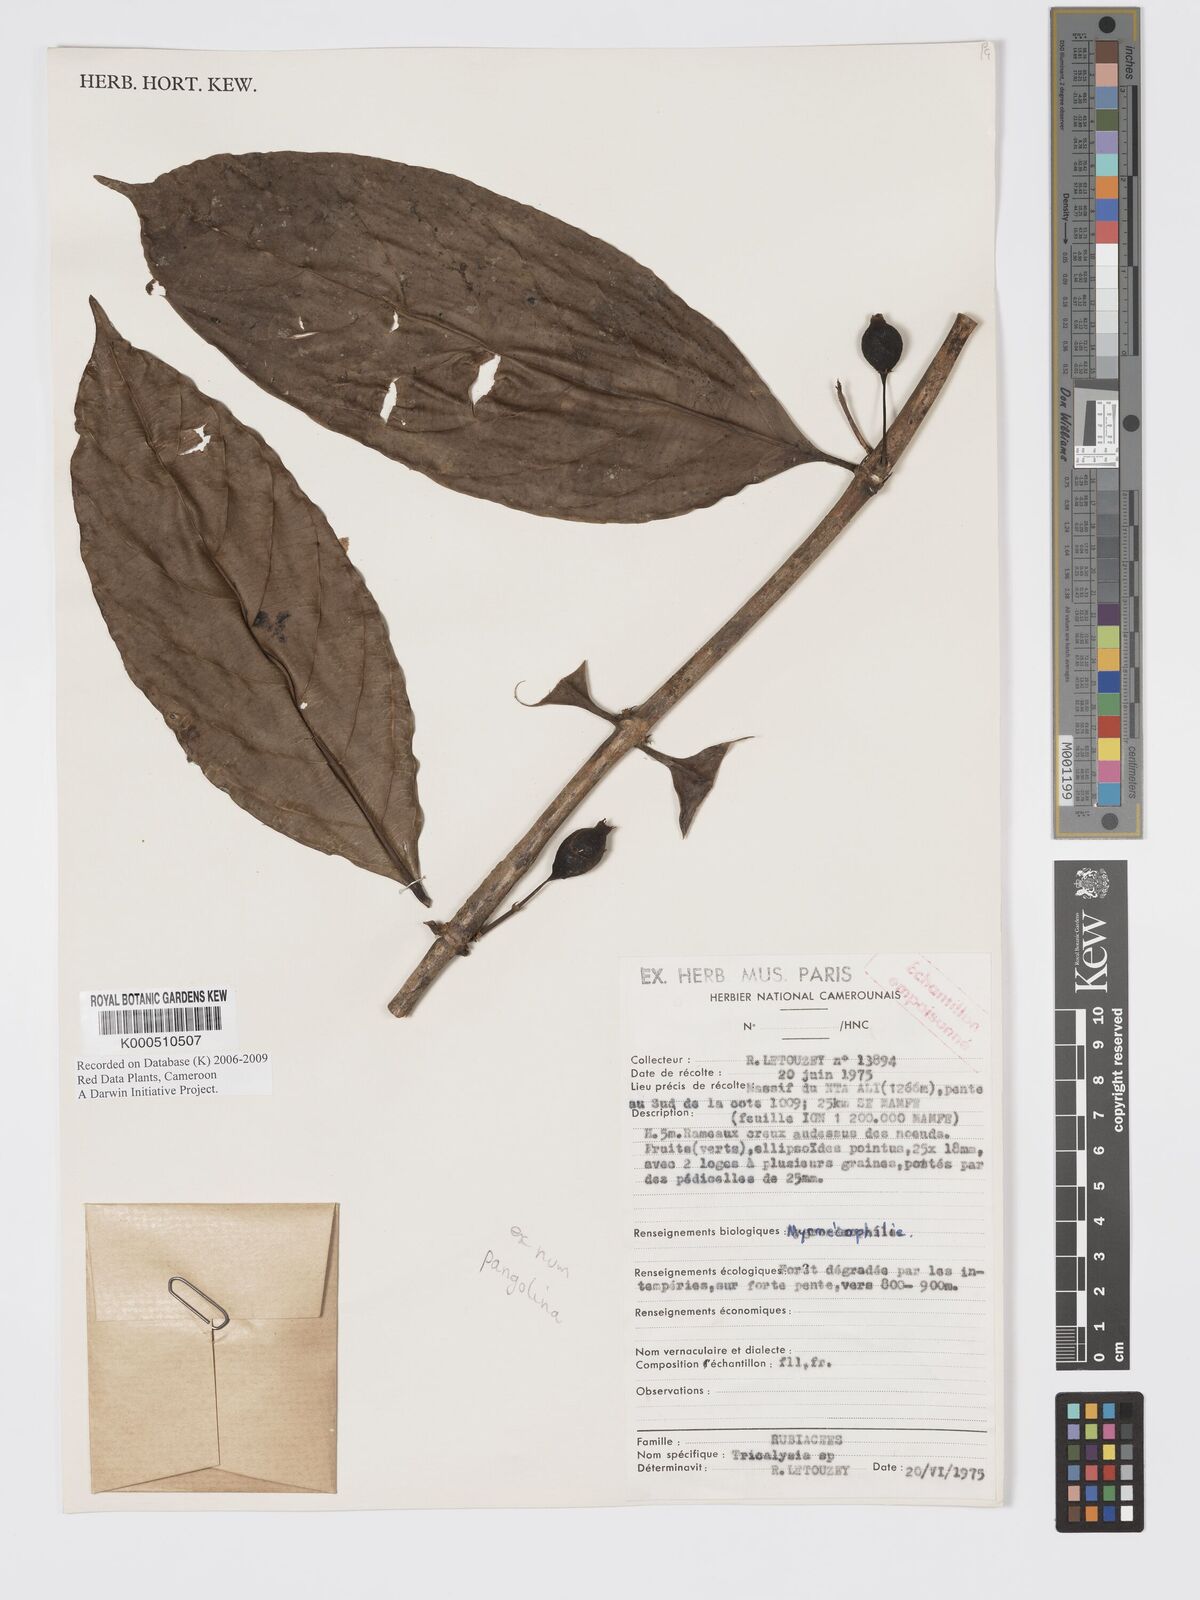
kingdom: Plantae
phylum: Tracheophyta
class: Magnoliopsida
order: Gentianales
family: Rubiaceae
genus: Tricalysia
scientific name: Tricalysia
